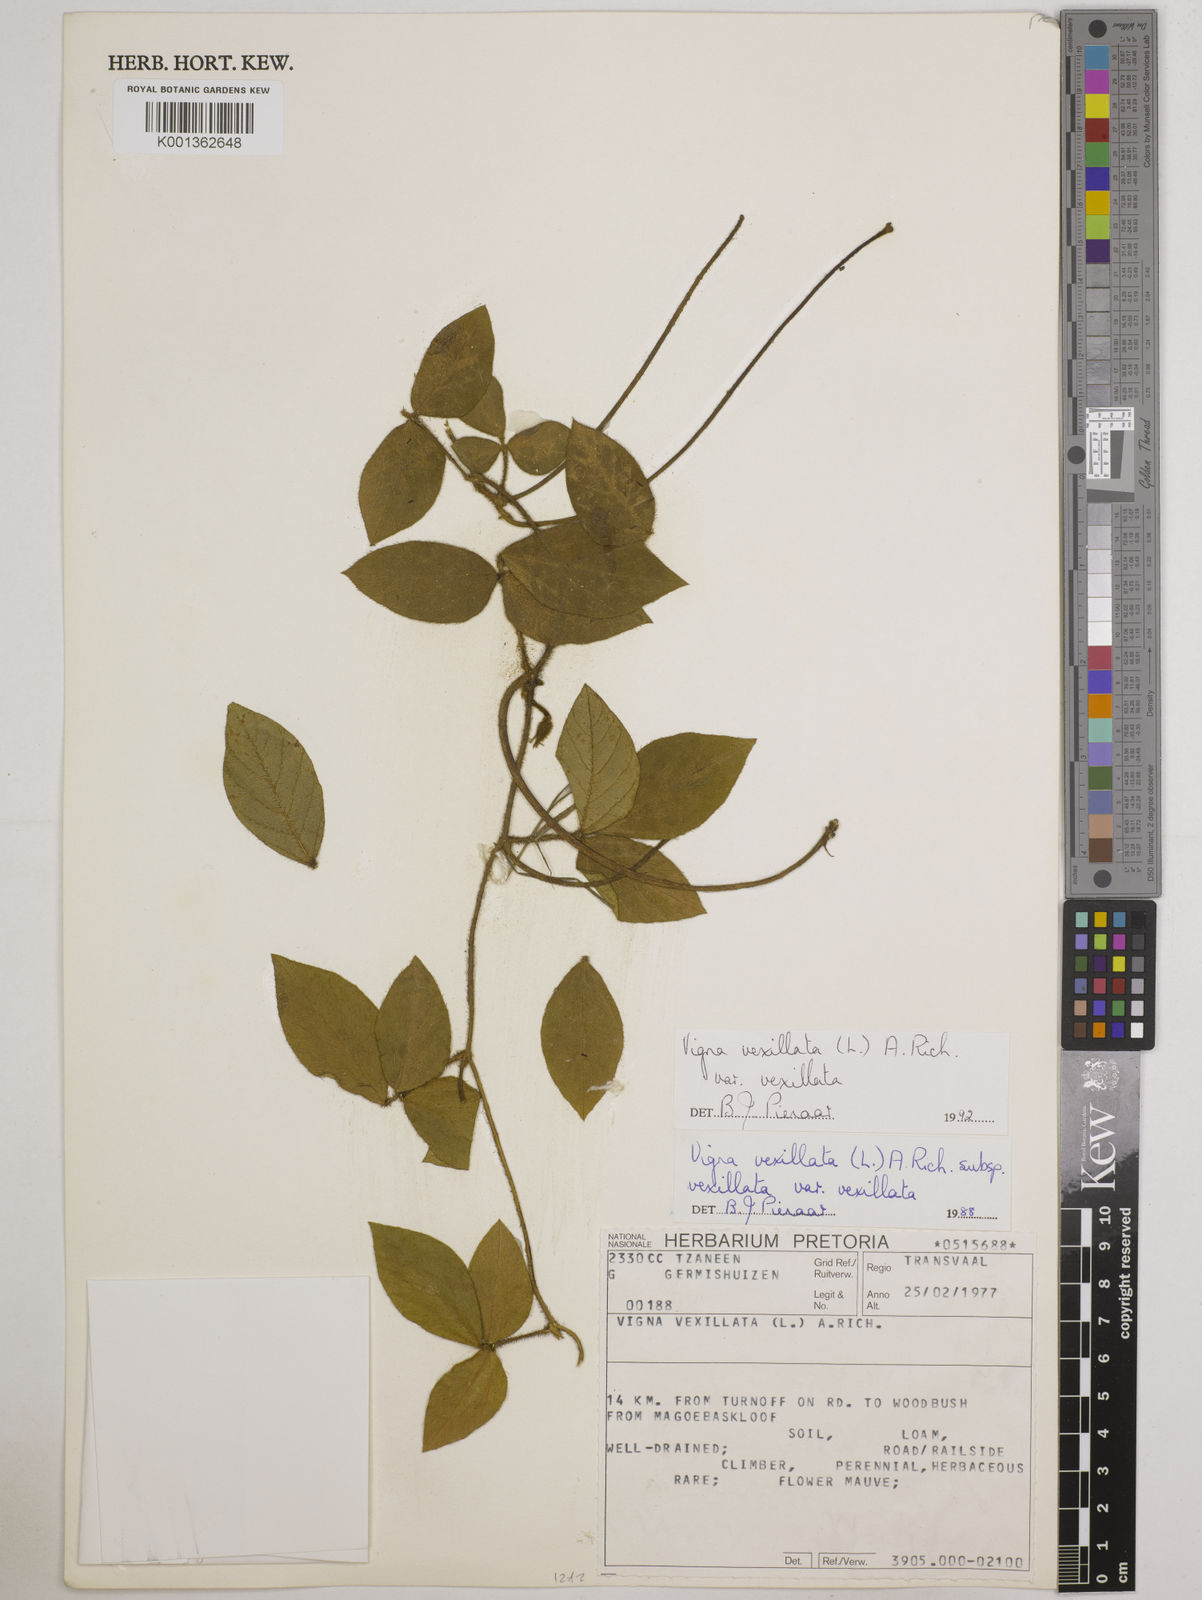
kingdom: Plantae
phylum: Tracheophyta
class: Magnoliopsida
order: Fabales
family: Fabaceae
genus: Vigna
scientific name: Vigna vexillata
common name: Zombi pea
